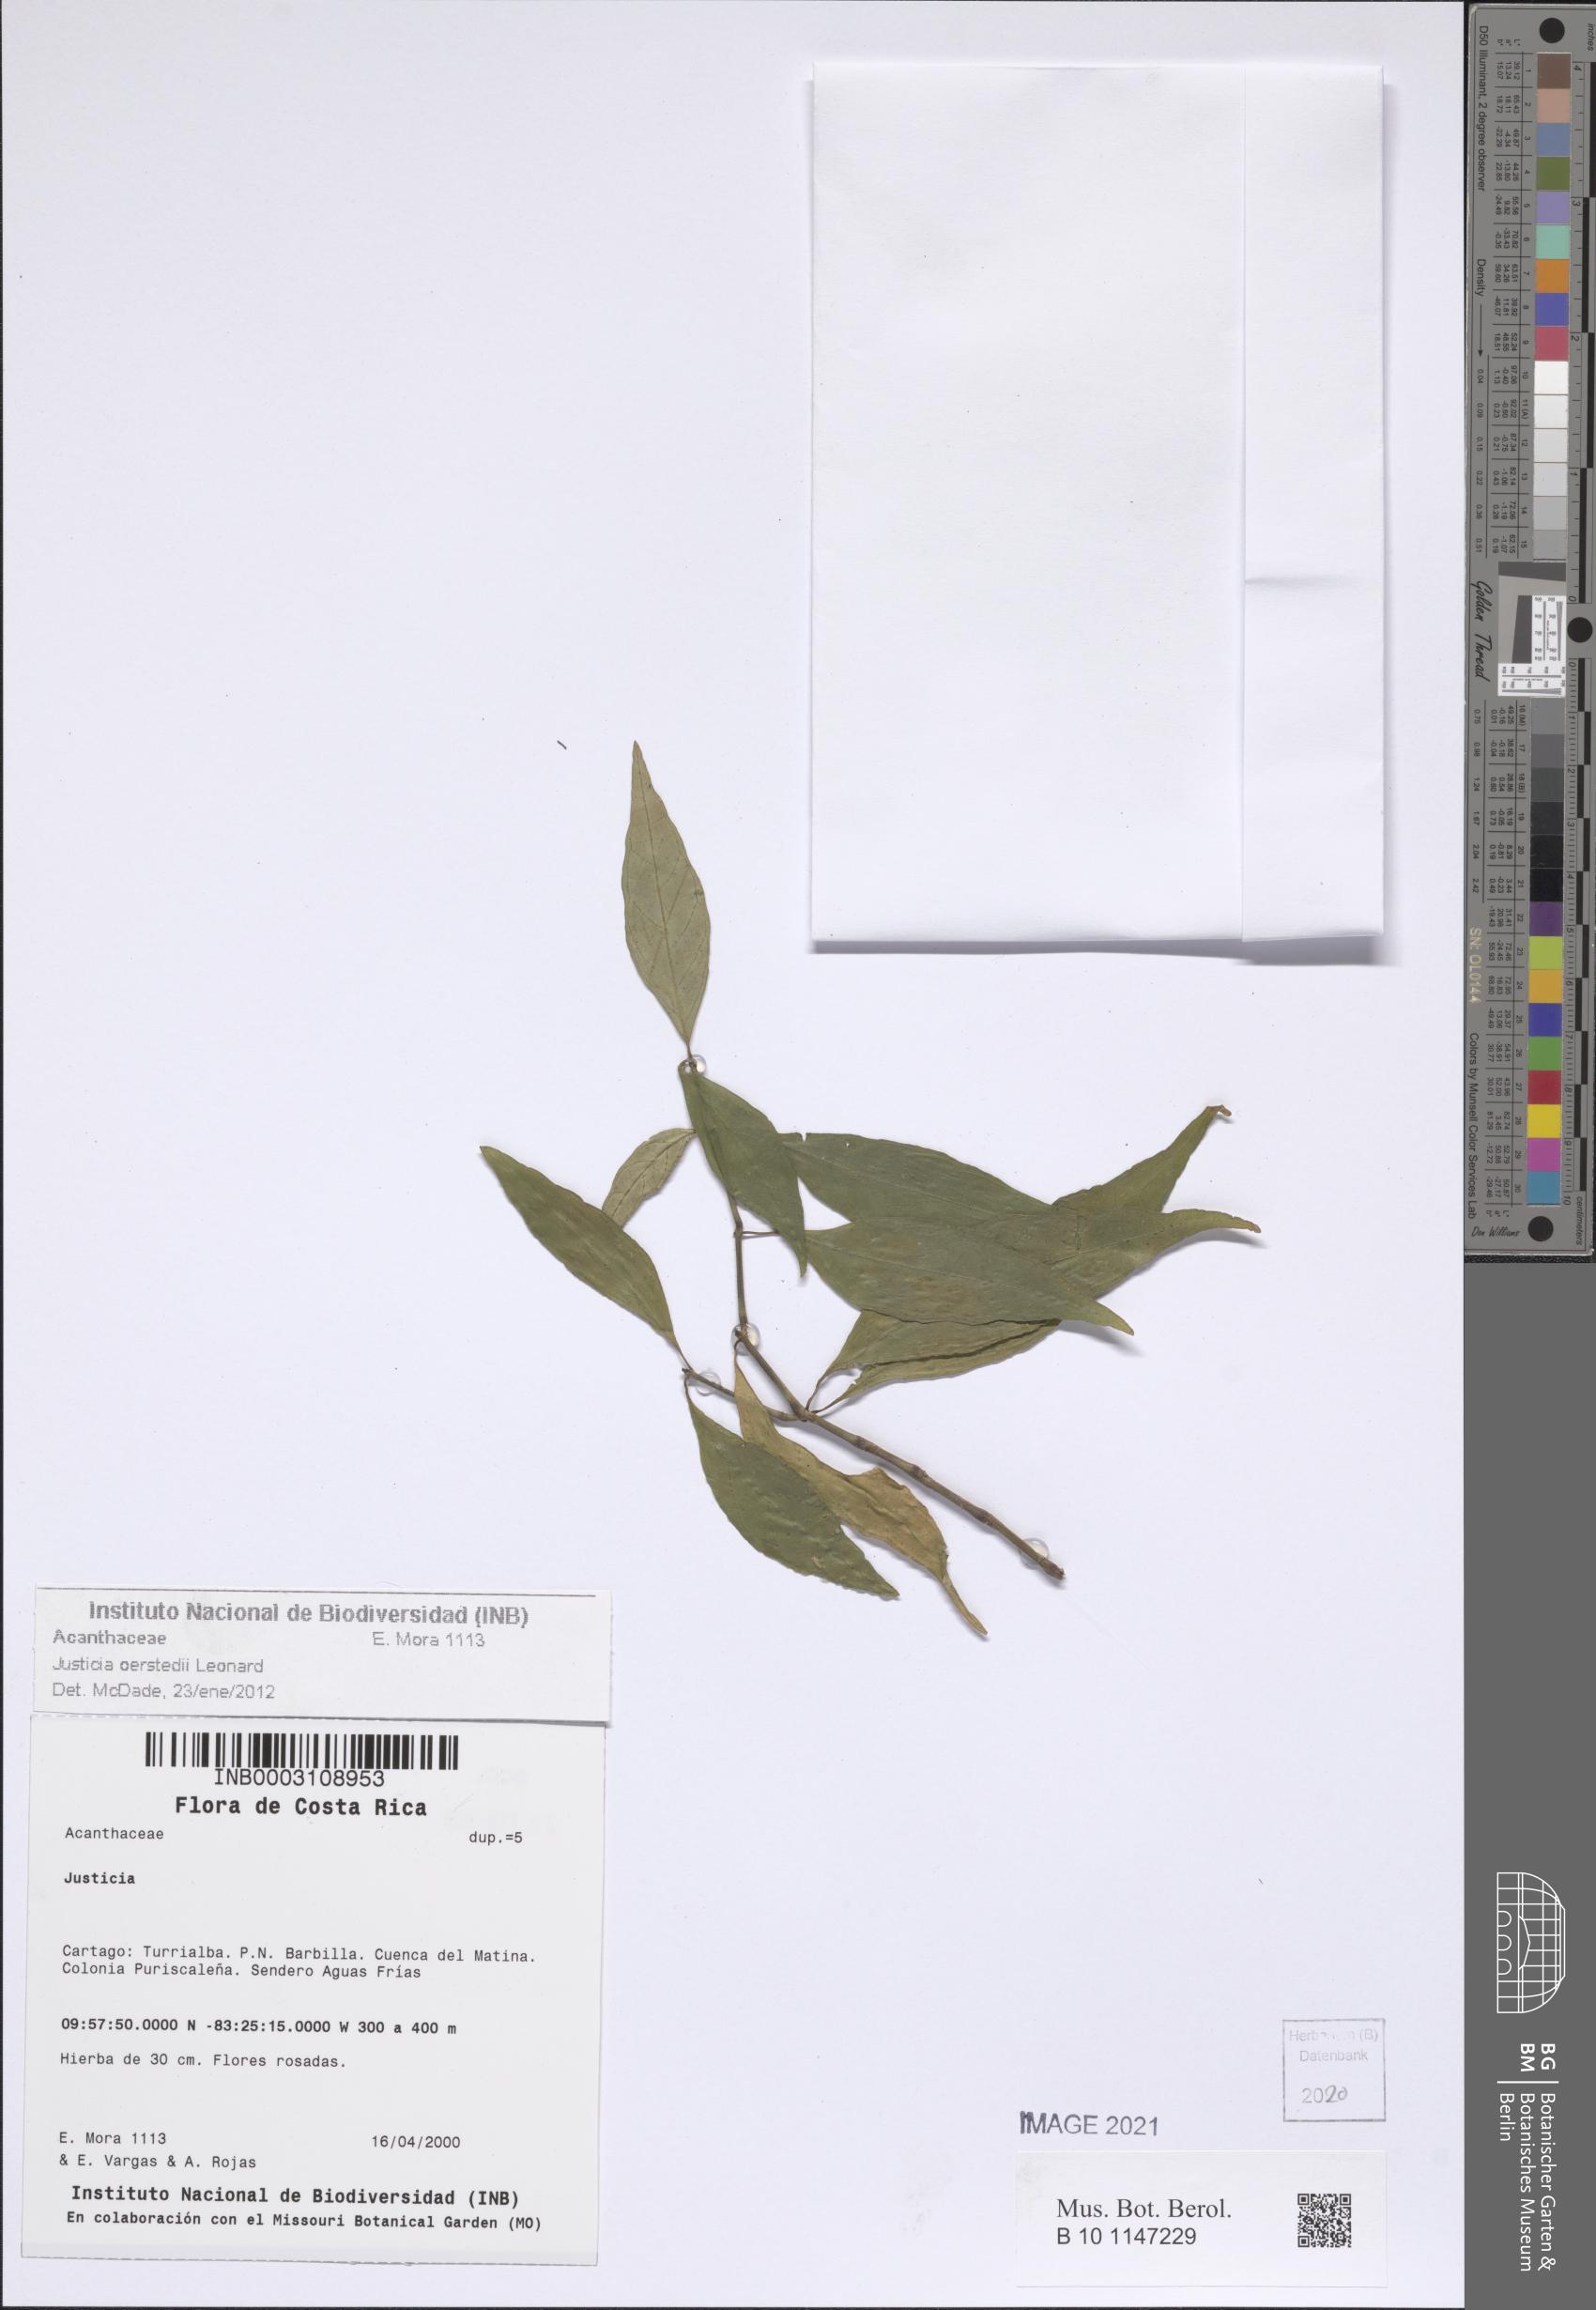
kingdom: Plantae
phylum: Tracheophyta
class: Magnoliopsida
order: Lamiales
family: Acanthaceae
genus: Dianthera
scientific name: Dianthera glabra
